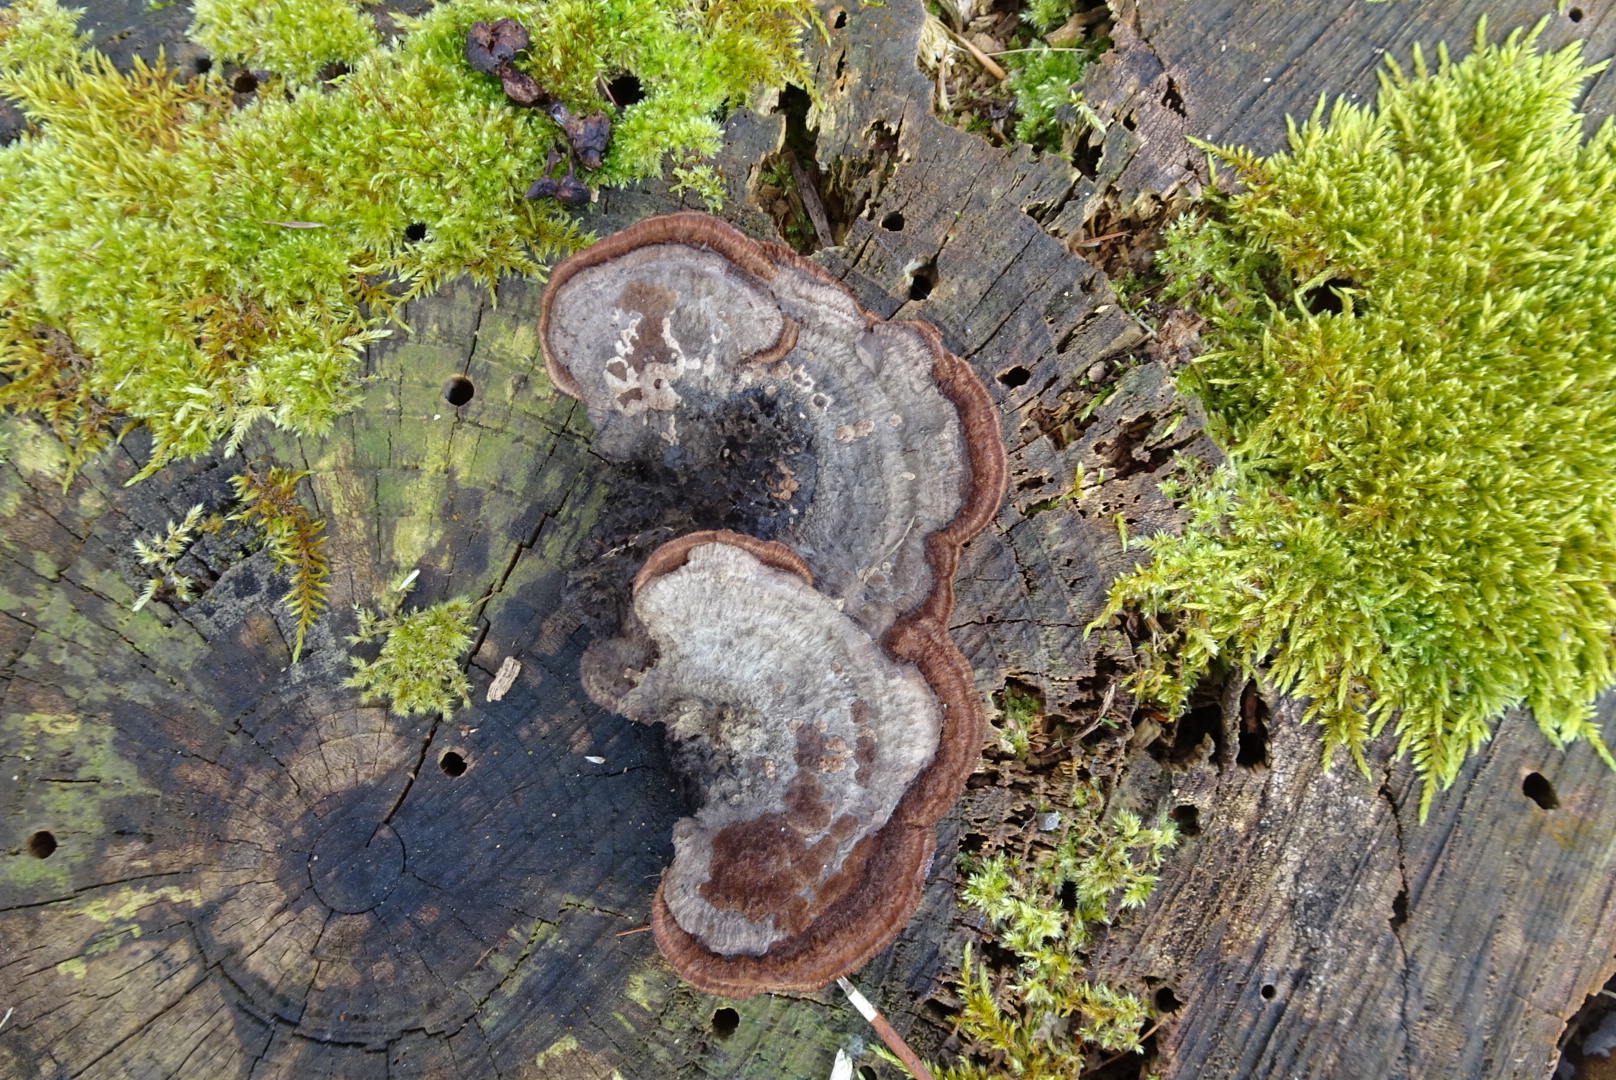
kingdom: Fungi
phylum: Basidiomycota
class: Agaricomycetes
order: Gloeophyllales
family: Gloeophyllaceae
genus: Gloeophyllum
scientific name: Gloeophyllum sepiarium
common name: fyrre-korkhat
